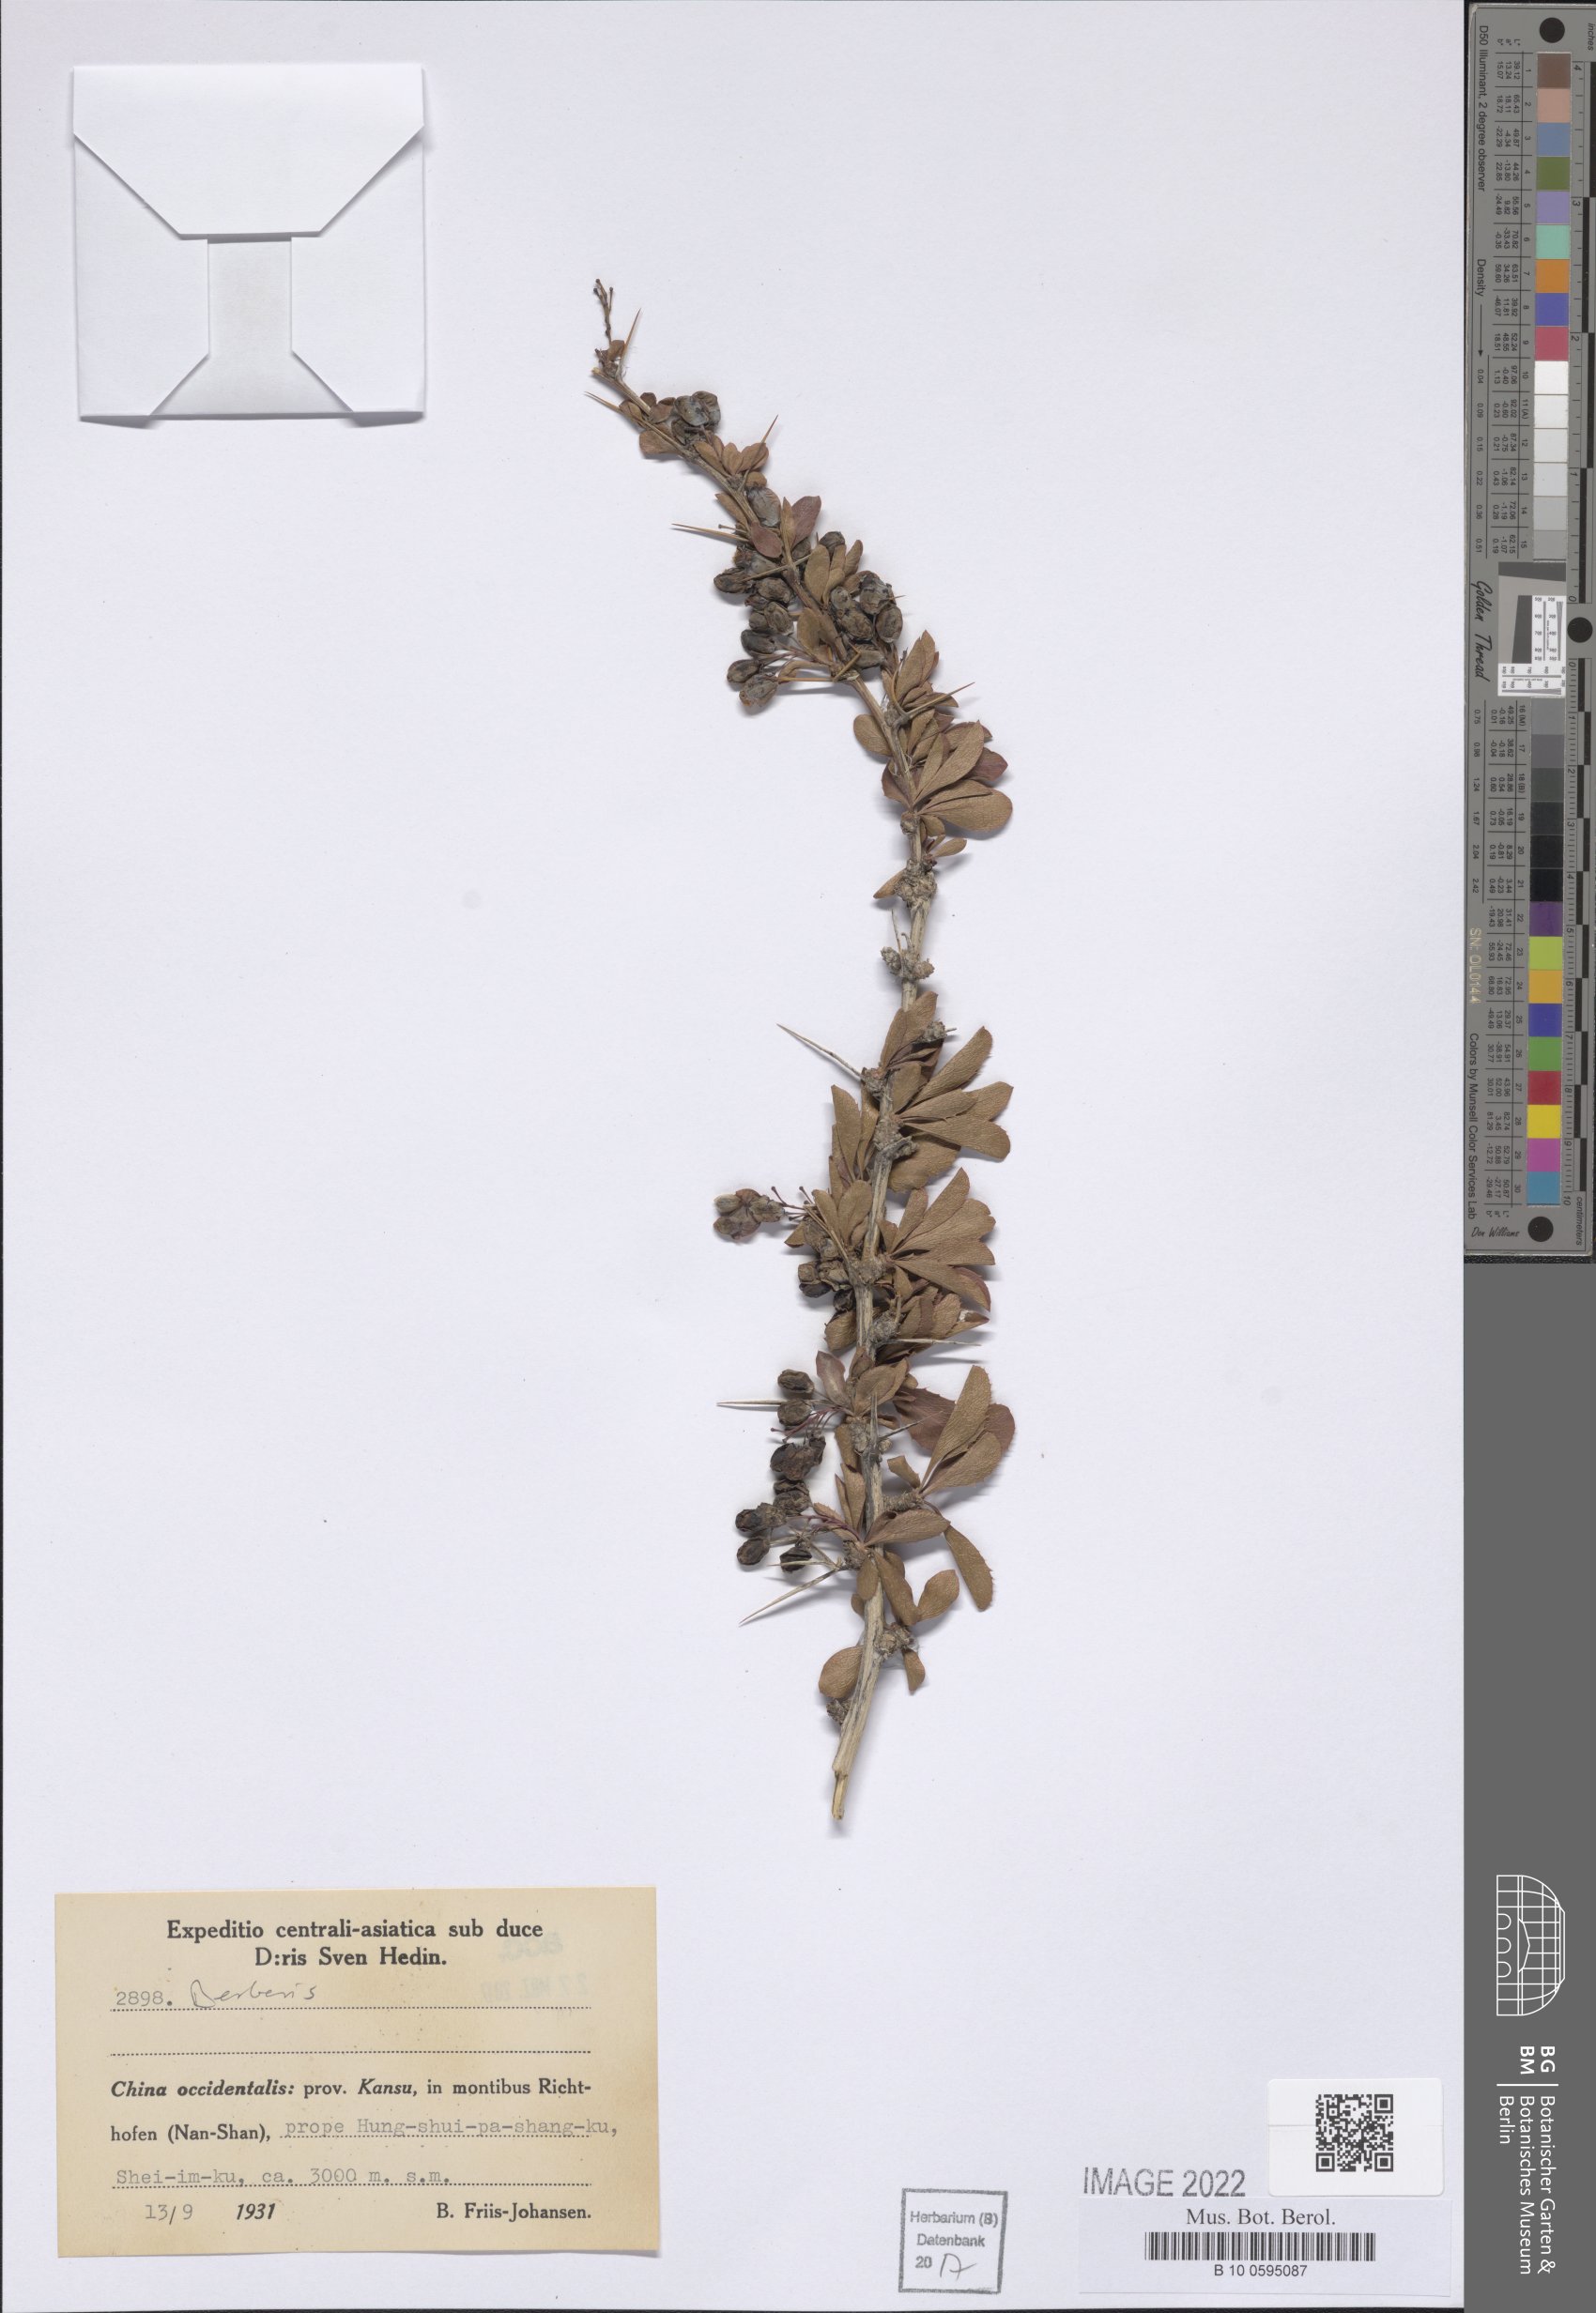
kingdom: Plantae
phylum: Tracheophyta
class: Magnoliopsida
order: Ranunculales
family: Berberidaceae
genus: Berberis
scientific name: Berberis
